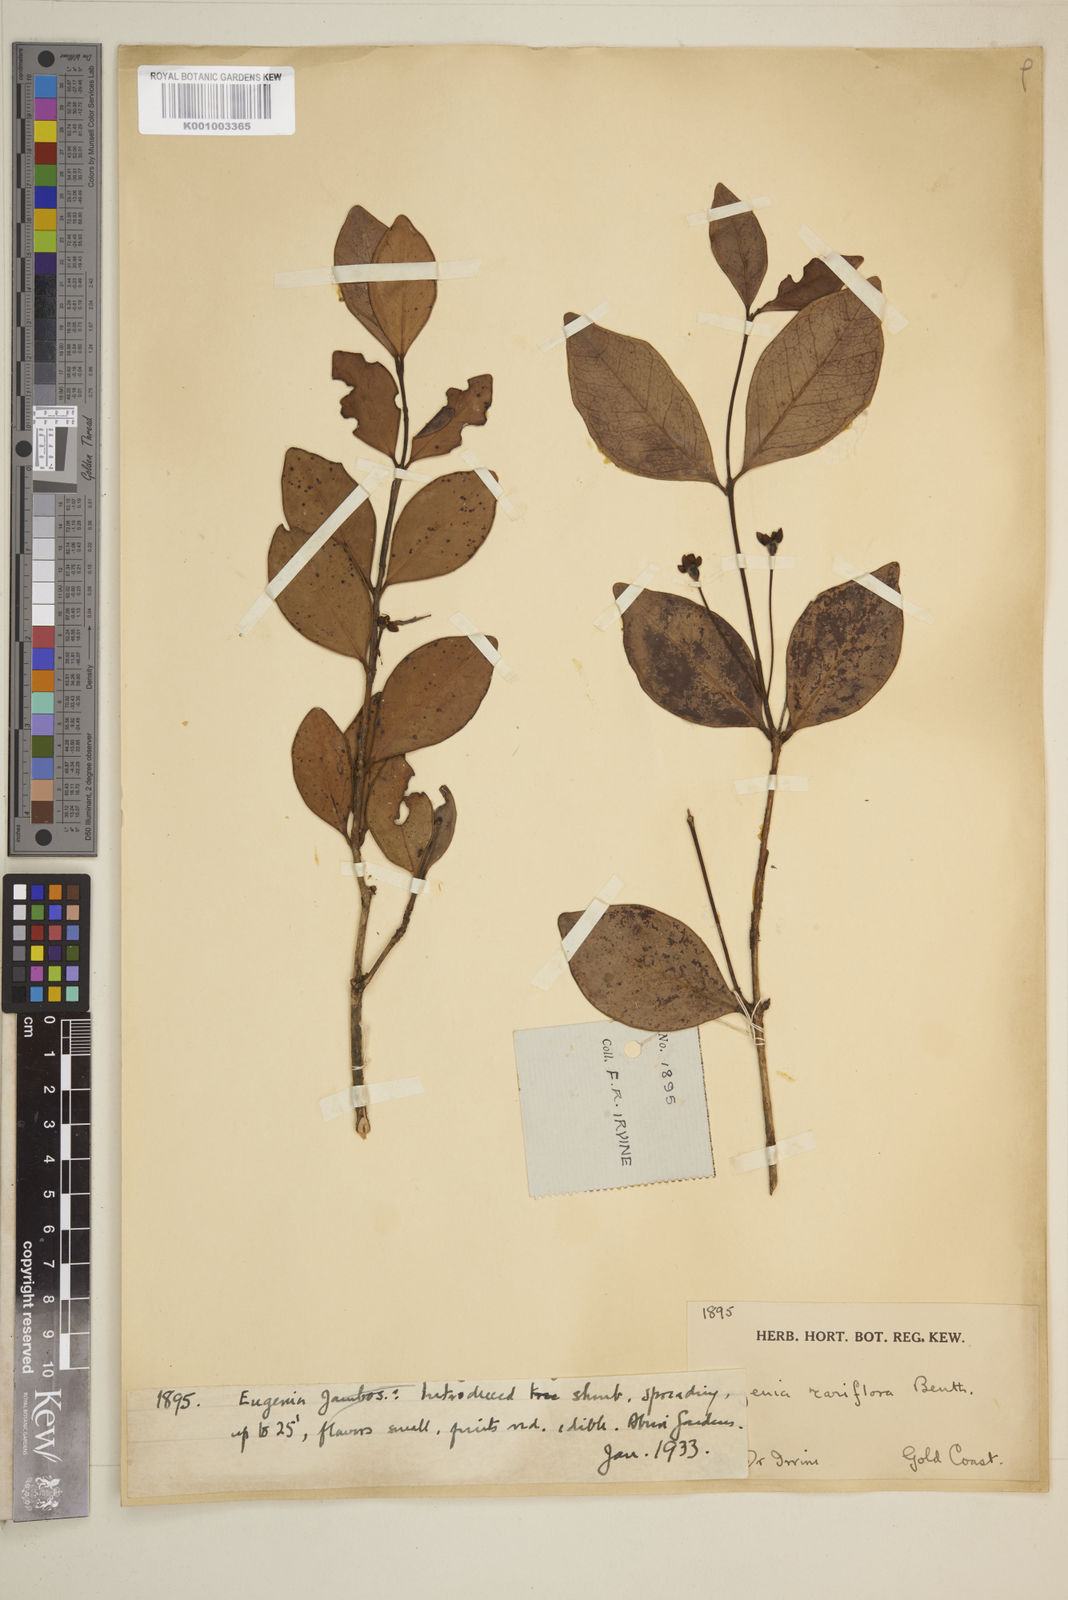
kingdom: Plantae
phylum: Tracheophyta
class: Magnoliopsida
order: Myrtales
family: Myrtaceae
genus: Eugenia
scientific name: Eugenia uniflora
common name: Surinam cherry
